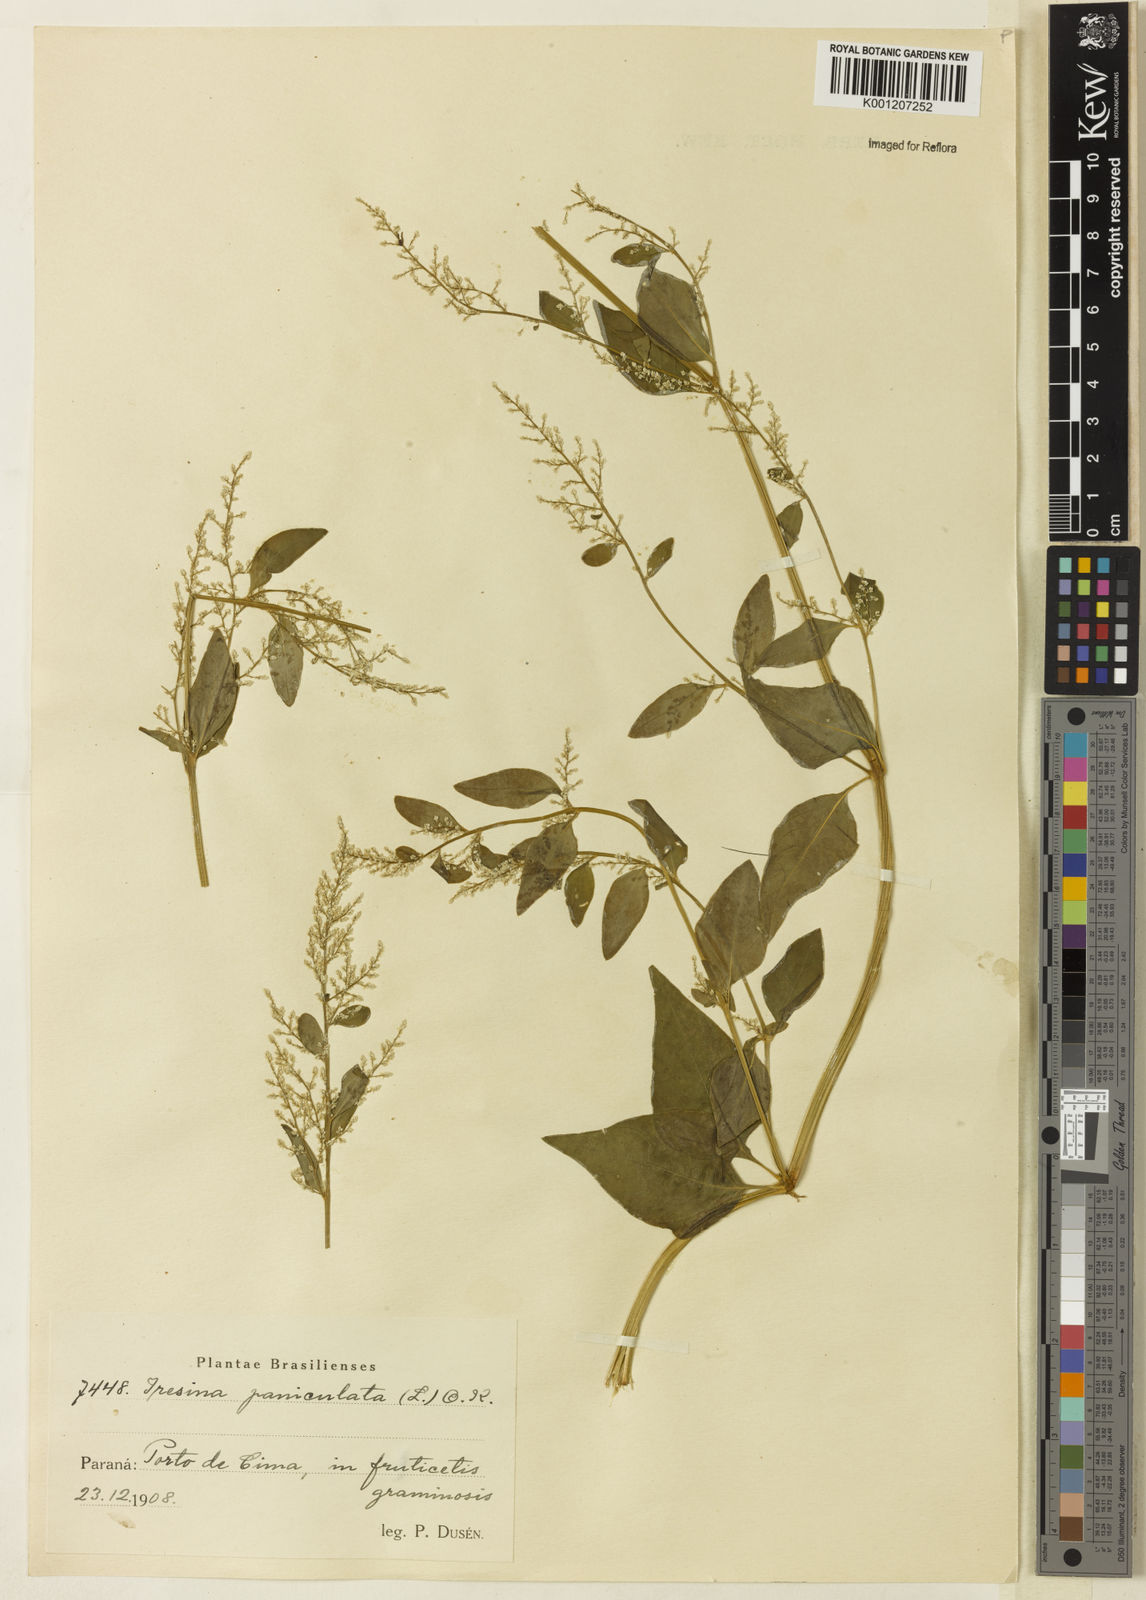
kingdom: Plantae
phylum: Tracheophyta
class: Magnoliopsida
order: Caryophyllales
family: Amaranthaceae
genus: Iresine
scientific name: Iresine rhizomatosa
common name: Juda's-bush
